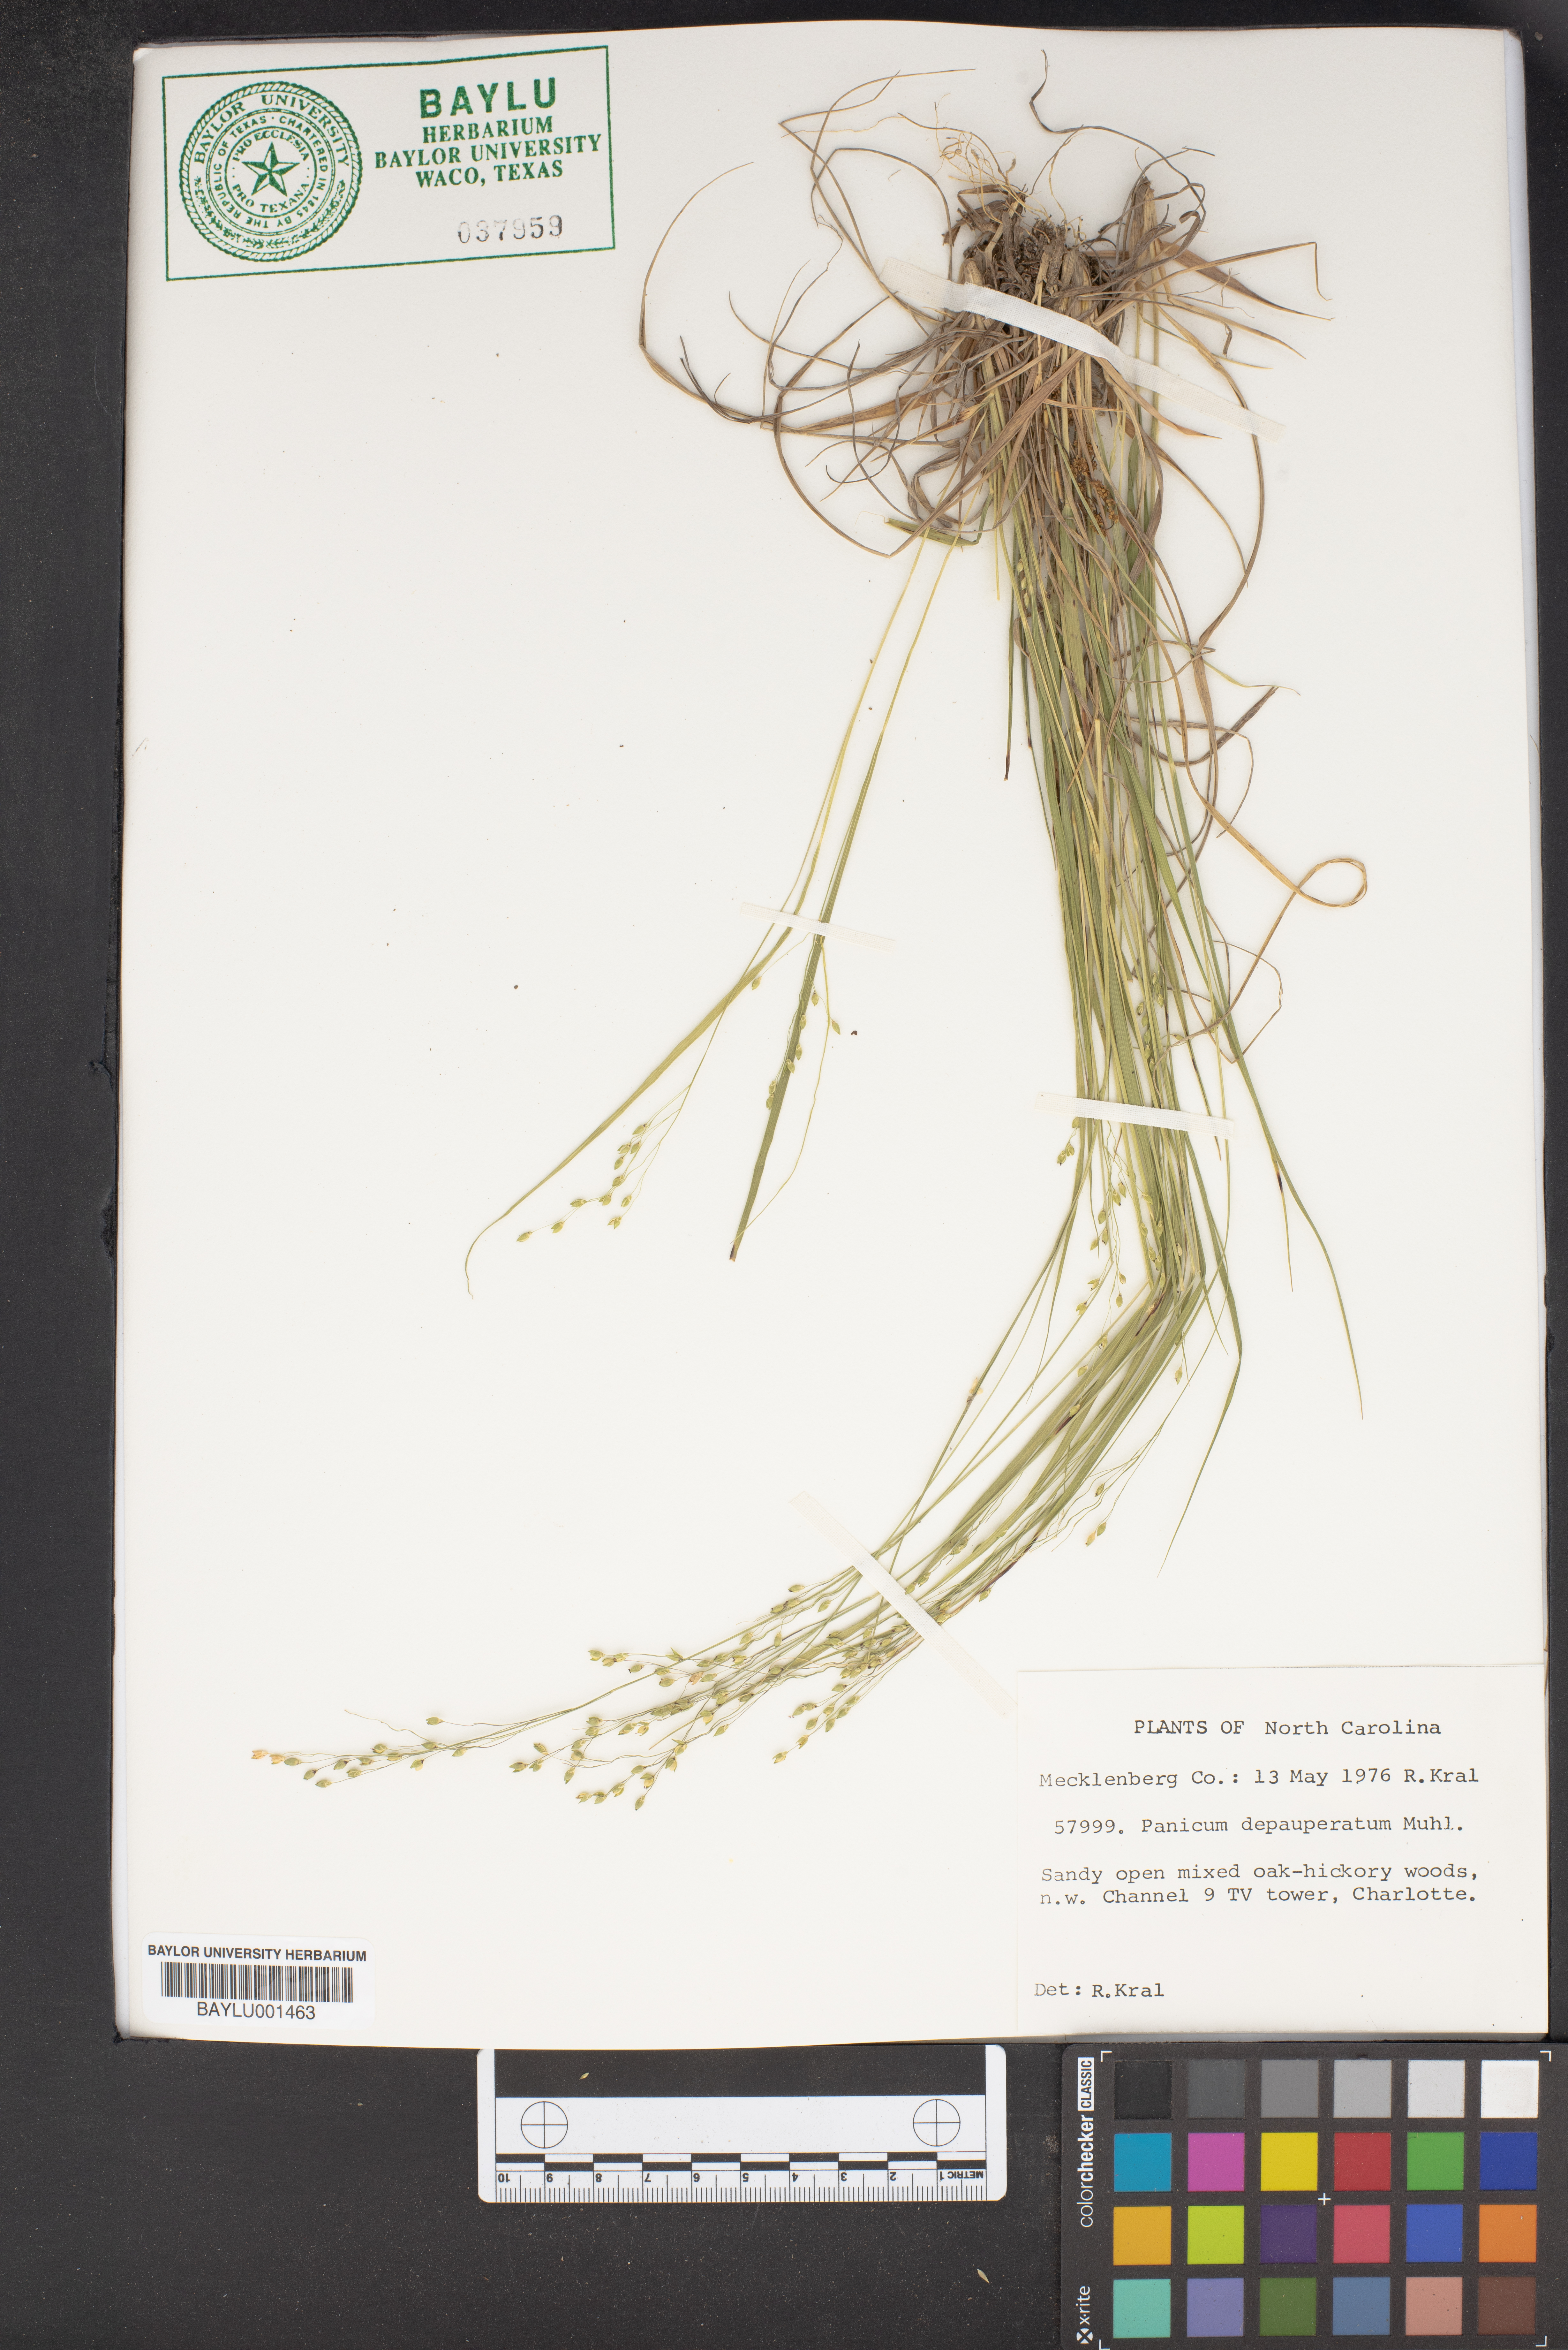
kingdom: Plantae
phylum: Tracheophyta
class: Liliopsida
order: Poales
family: Poaceae
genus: Dichanthelium
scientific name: Dichanthelium depauperatum
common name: Depauperate panicgrass
